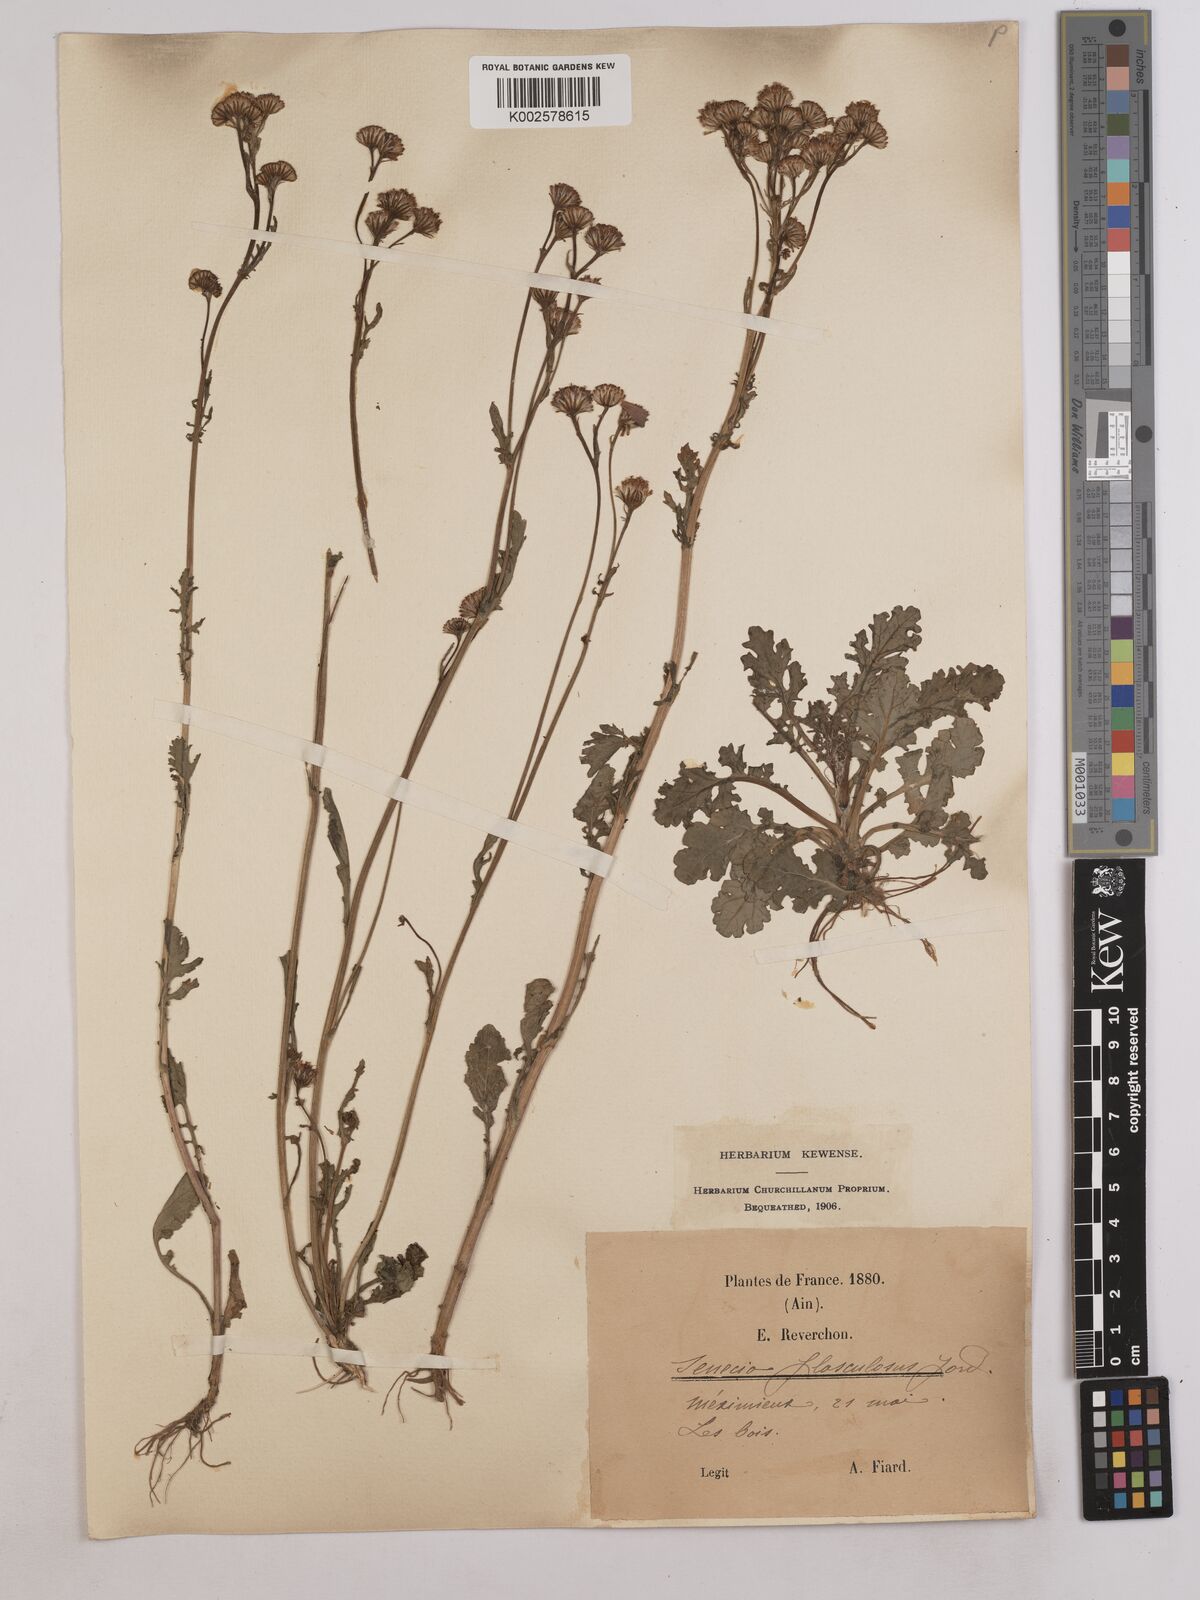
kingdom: Plantae
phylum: Tracheophyta
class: Magnoliopsida
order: Asterales
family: Asteraceae
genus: Jacobaea
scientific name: Jacobaea vulgaris
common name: Stinking willie
